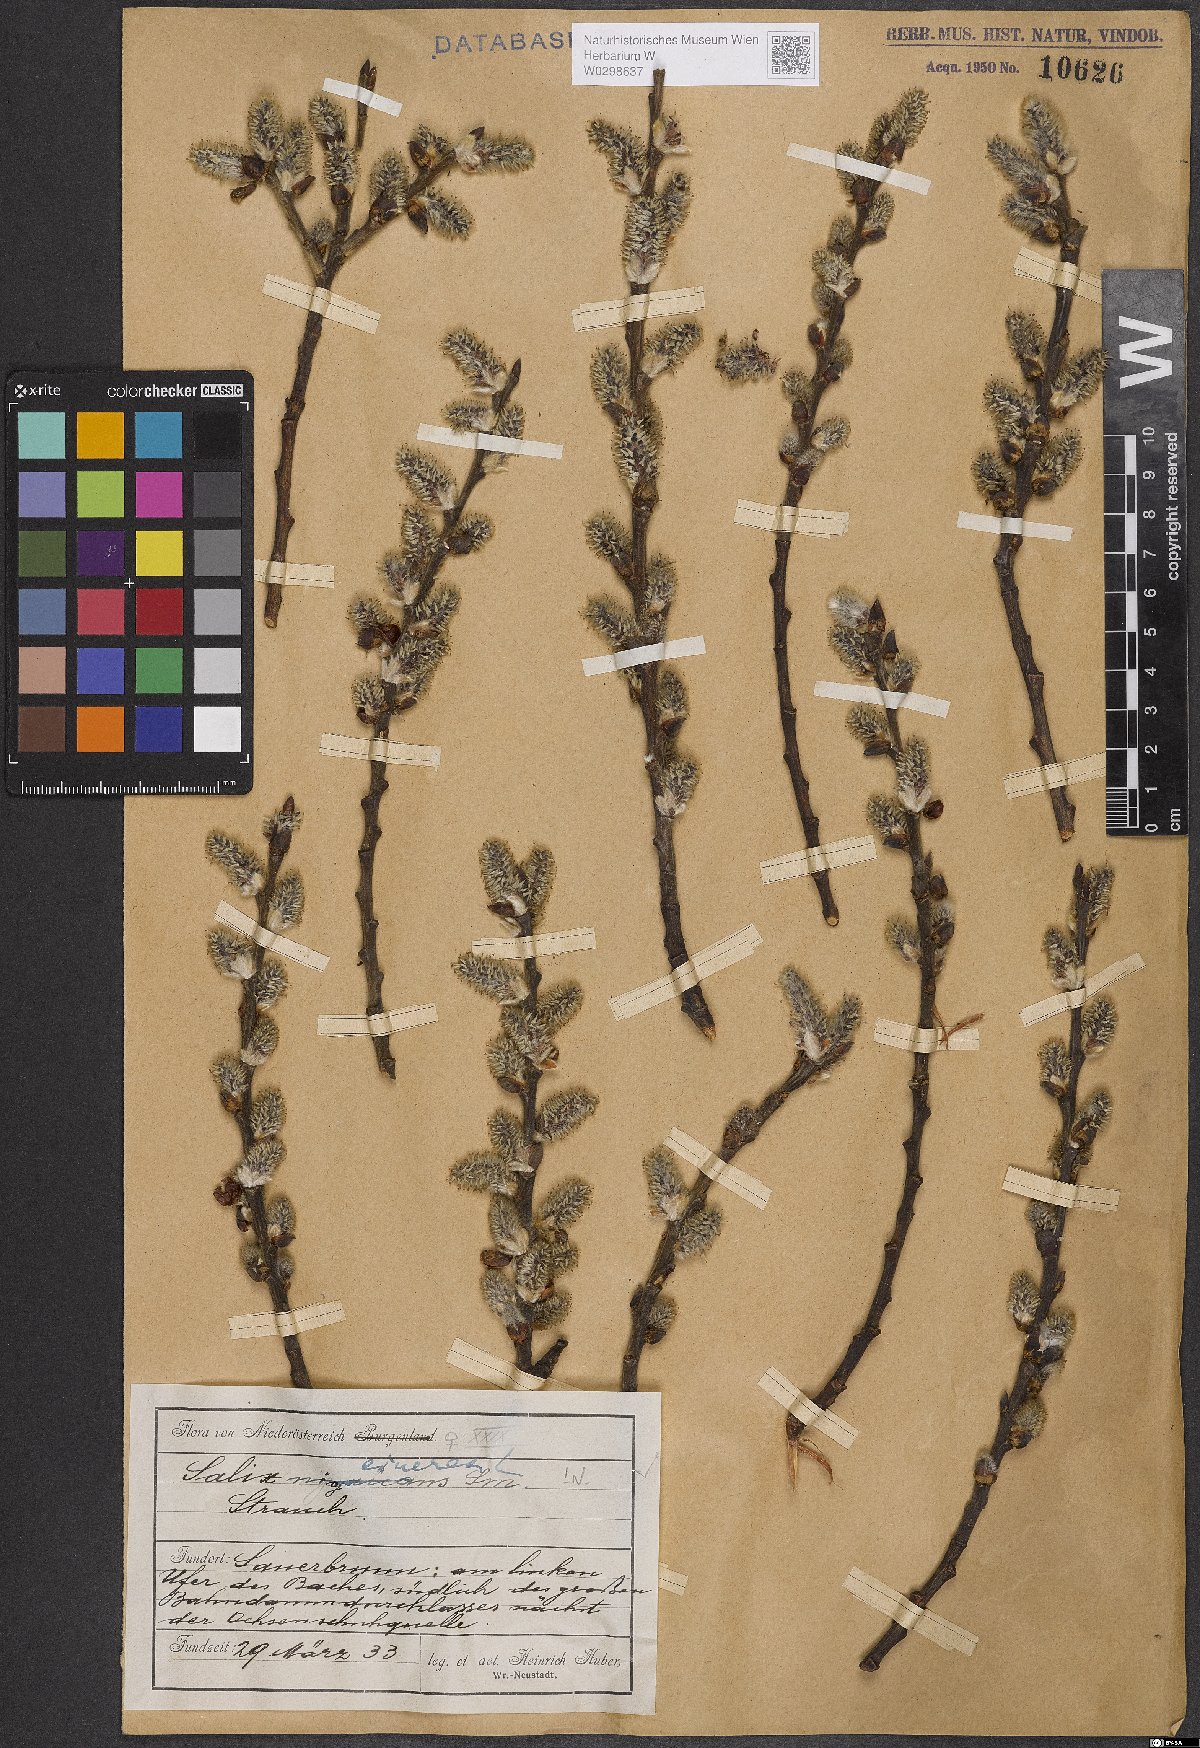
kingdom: Plantae
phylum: Tracheophyta
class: Magnoliopsida
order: Malpighiales
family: Salicaceae
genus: Salix
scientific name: Salix cinerea
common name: Common sallow
